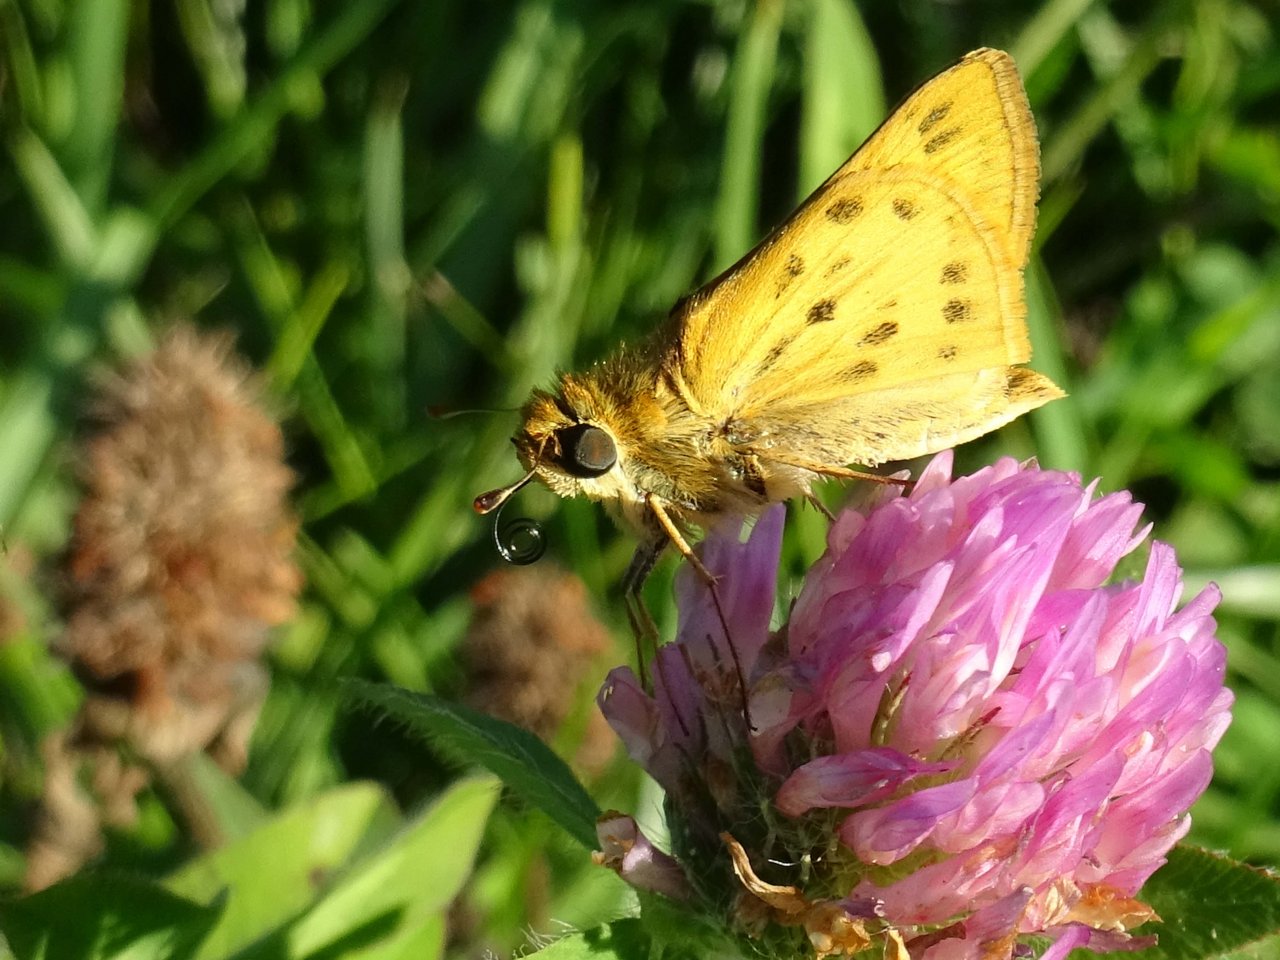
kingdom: Animalia
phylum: Arthropoda
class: Insecta
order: Lepidoptera
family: Hesperiidae
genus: Hylephila
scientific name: Hylephila phyleus
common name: Fiery Skipper
